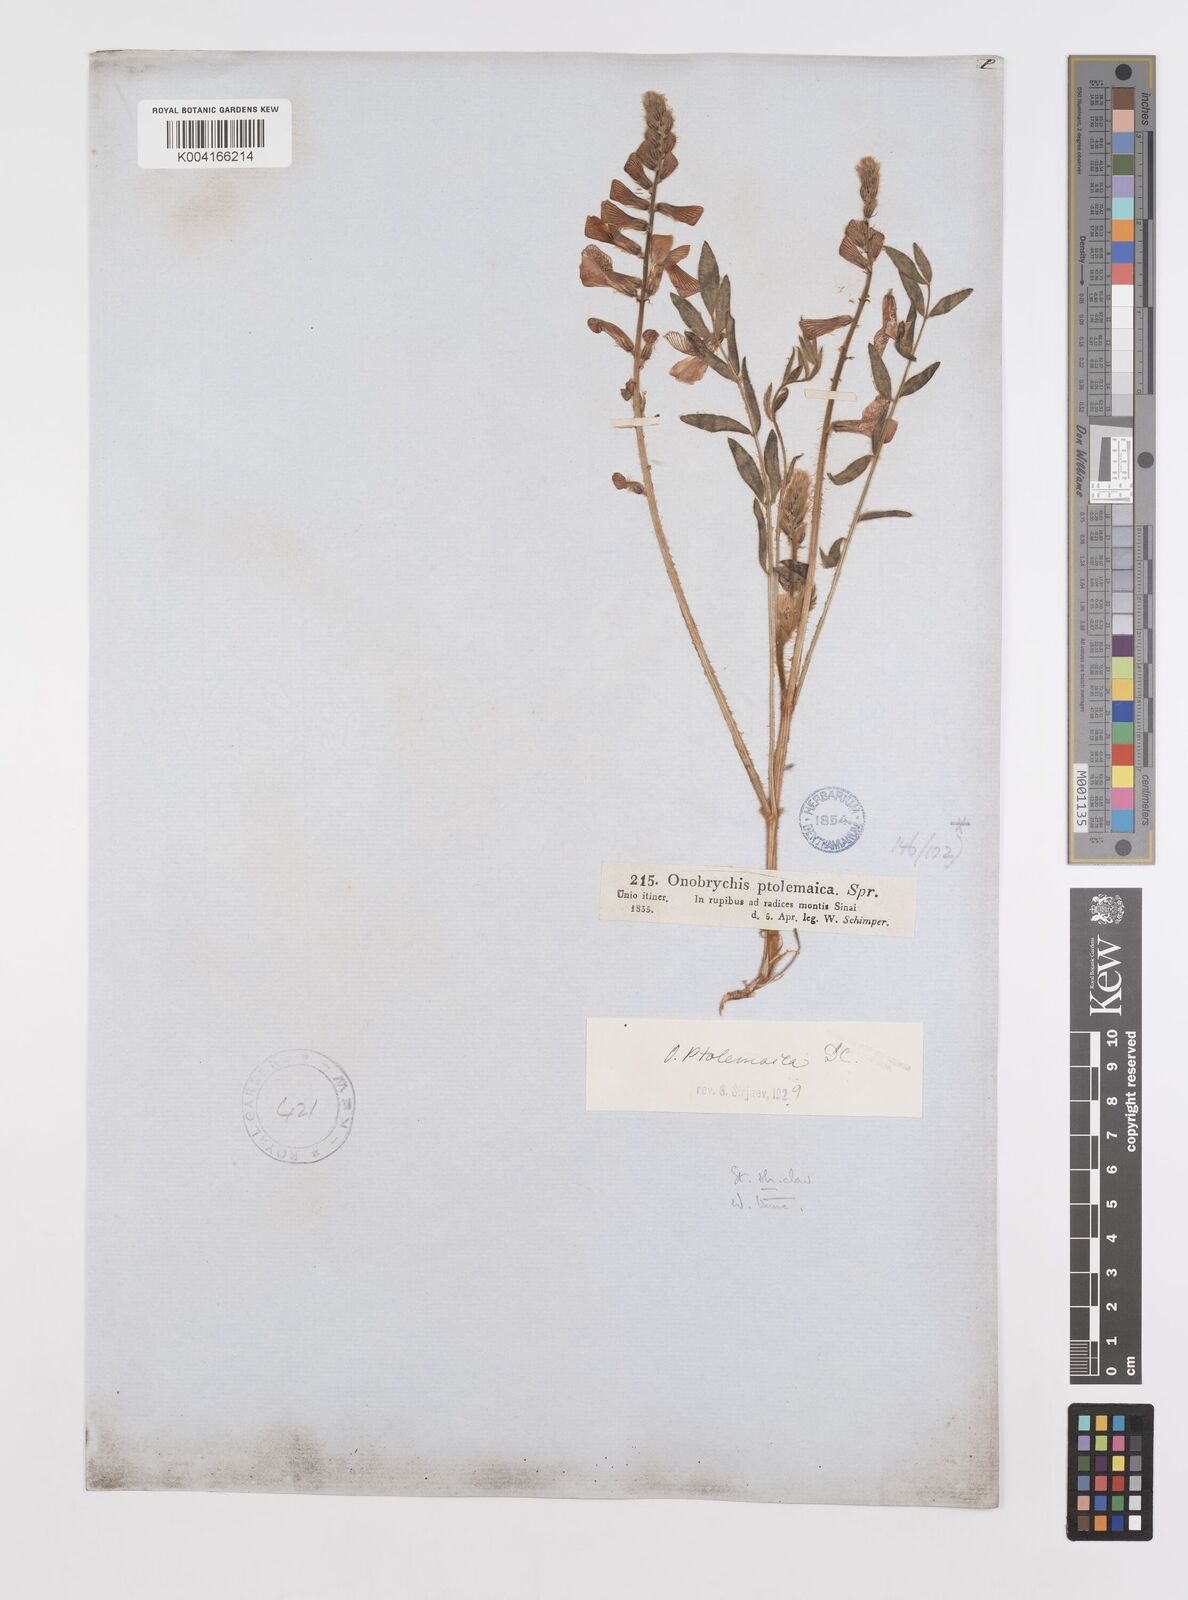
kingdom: Plantae
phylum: Tracheophyta
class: Magnoliopsida
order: Fabales
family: Fabaceae
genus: Onobrychis
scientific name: Onobrychis ptolemaica
